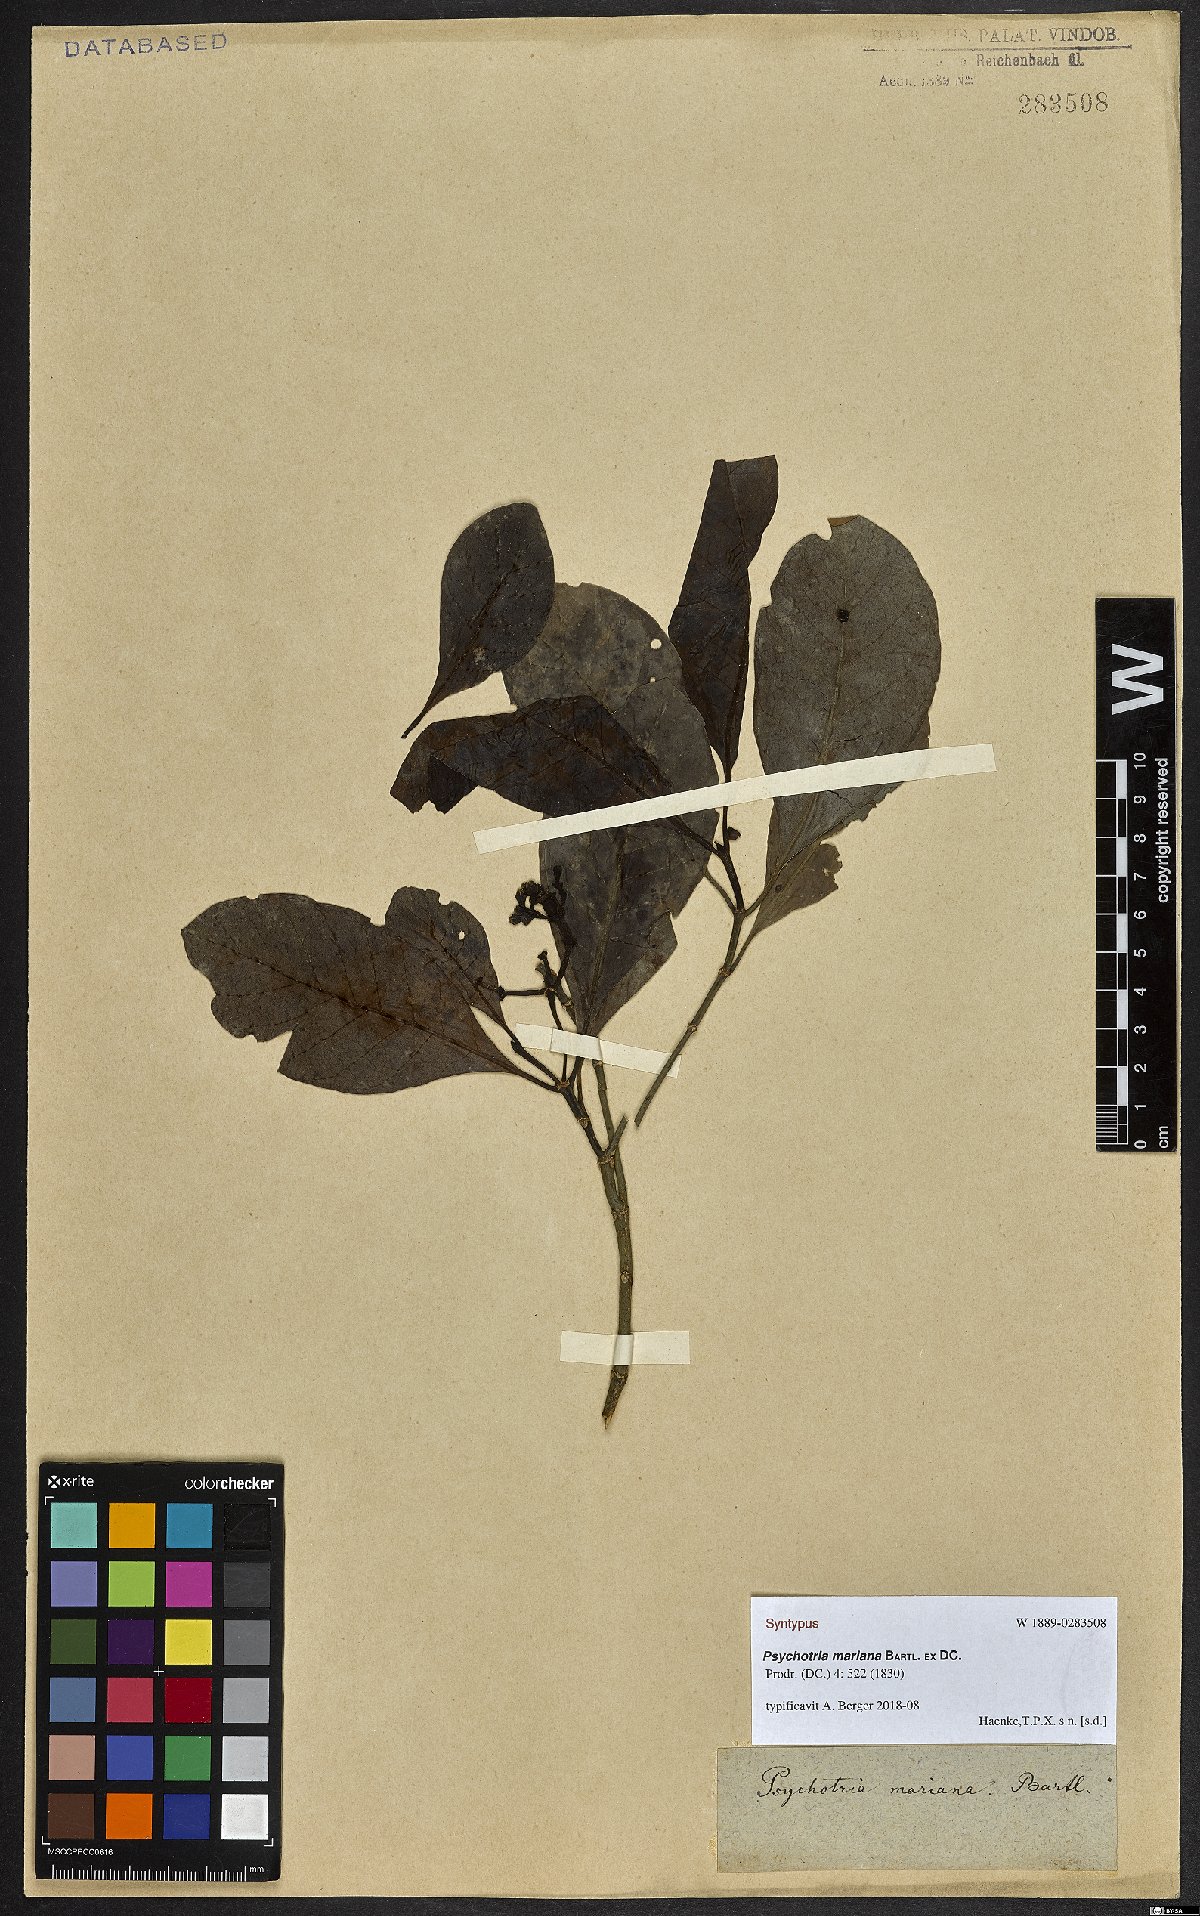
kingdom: Plantae
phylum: Tracheophyta
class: Magnoliopsida
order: Gentianales
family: Rubiaceae
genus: Psychotria
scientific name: Psychotria mariana
